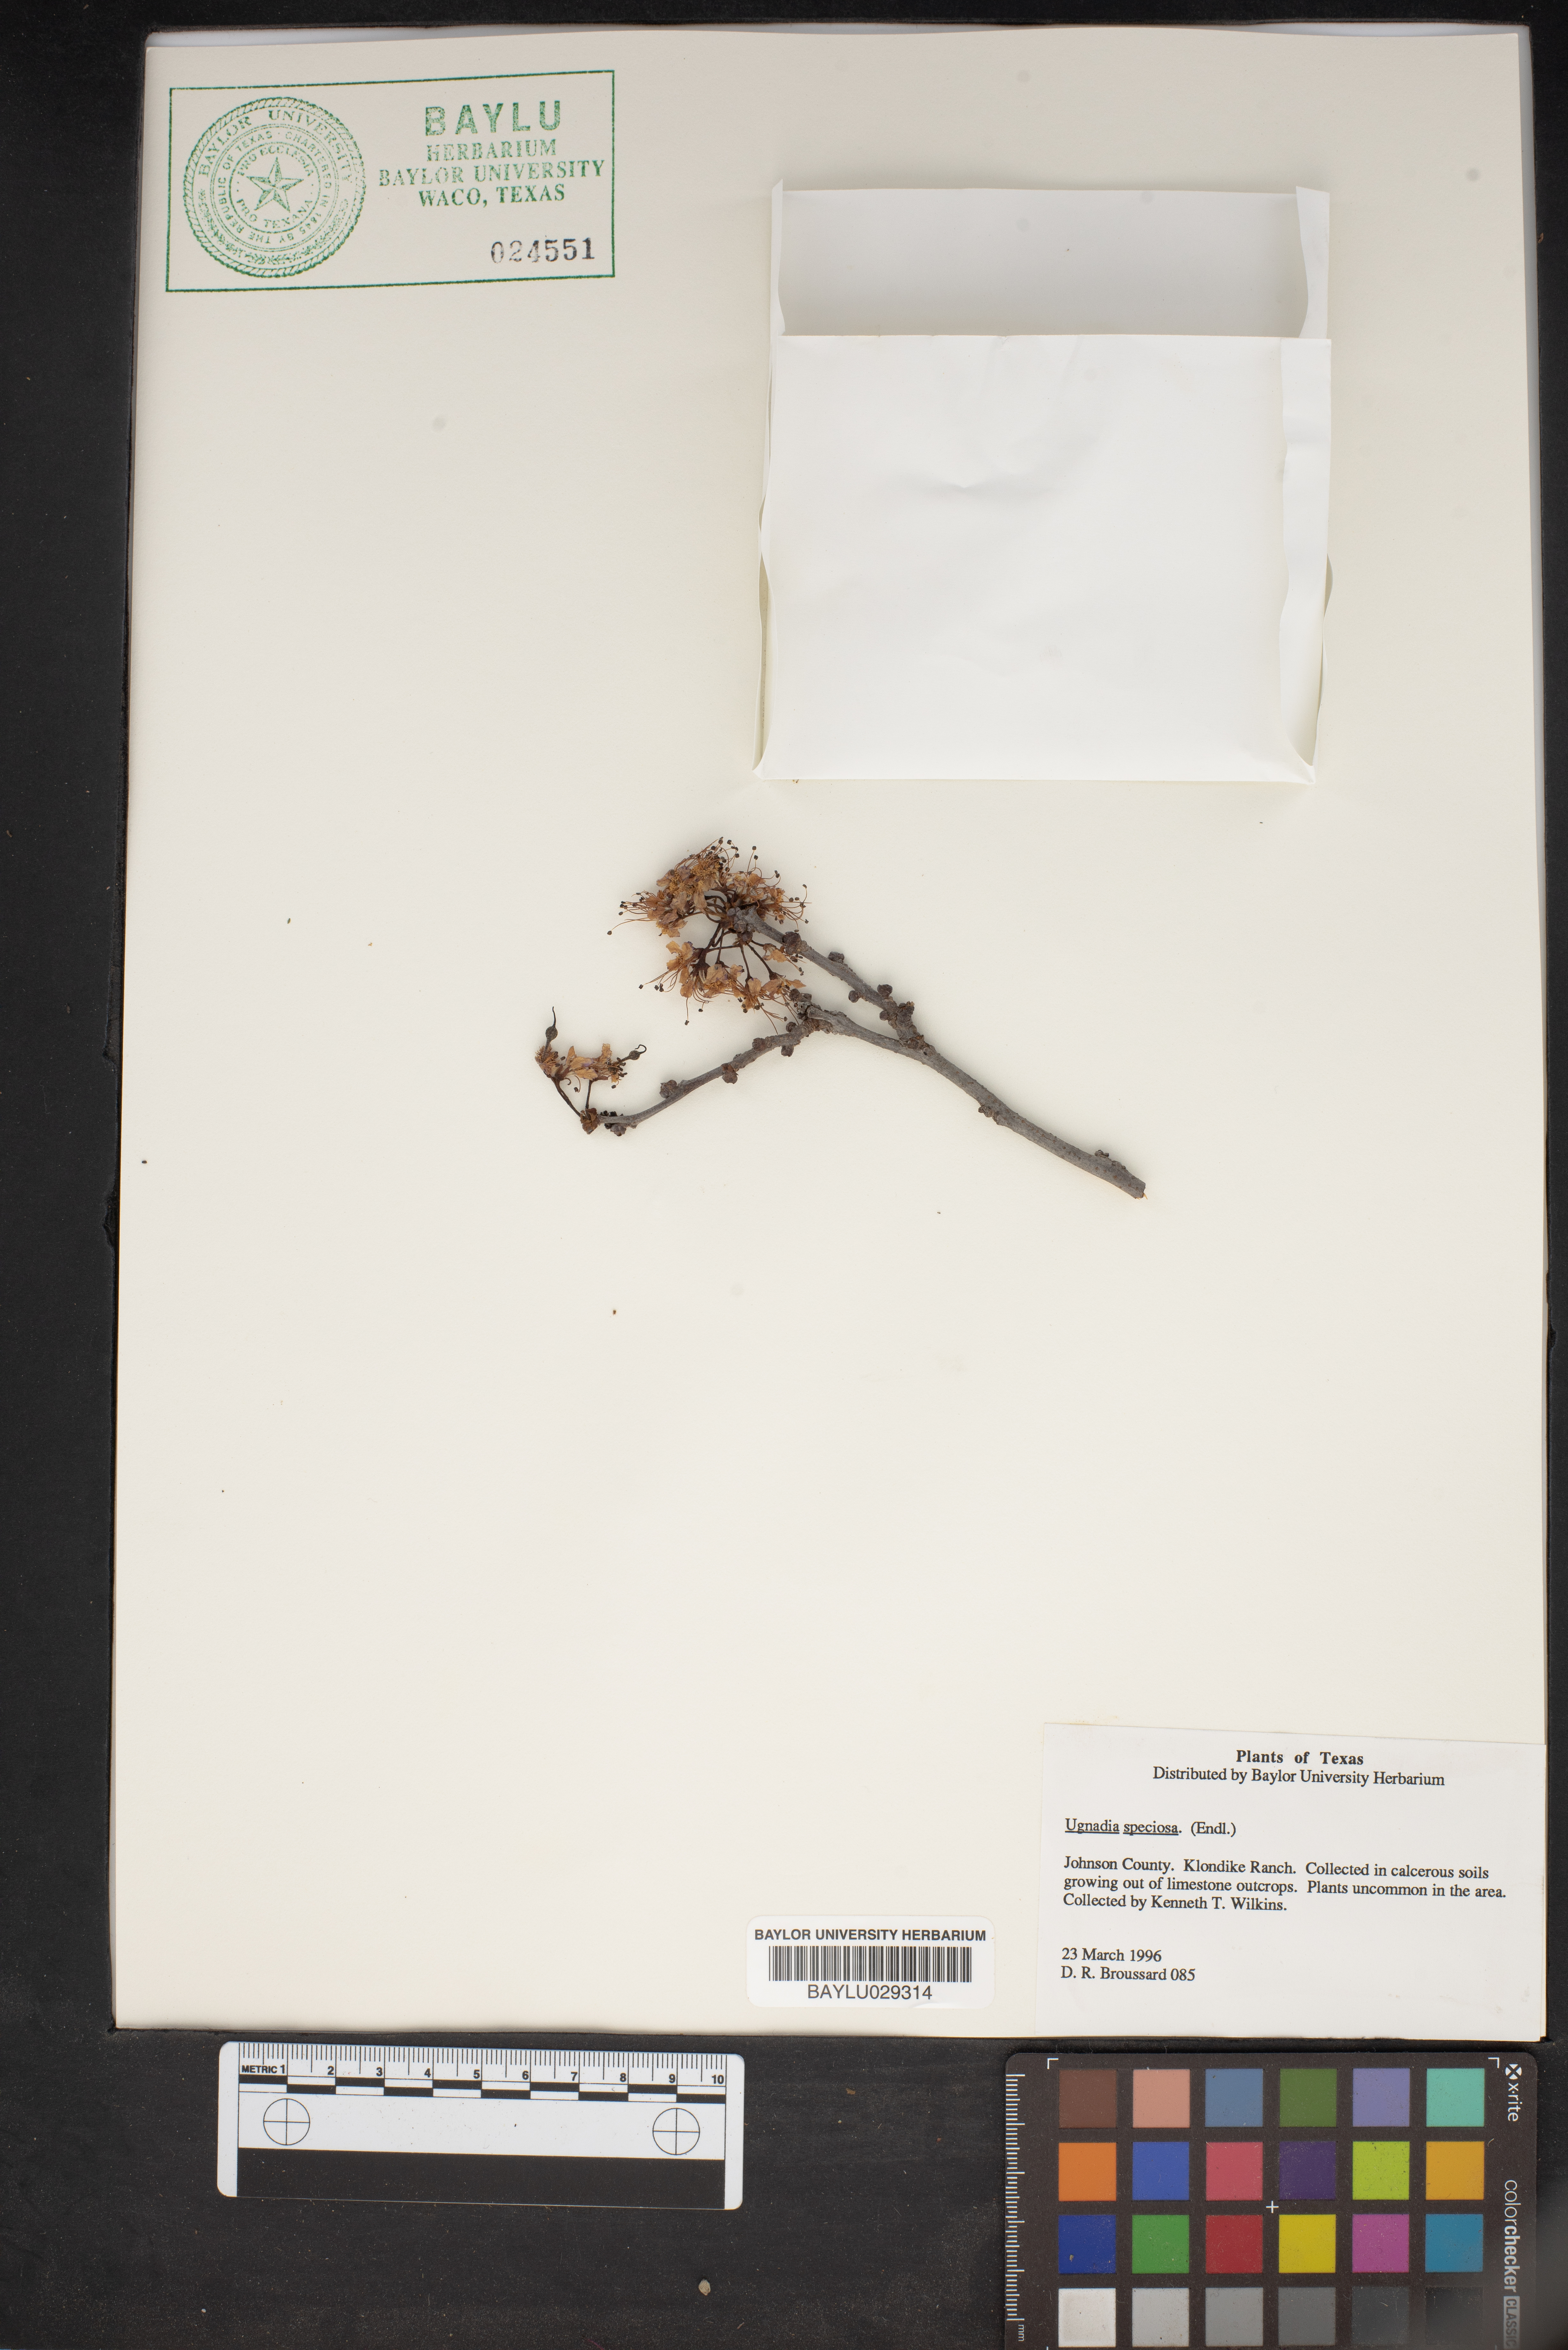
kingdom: Plantae
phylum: Tracheophyta
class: Magnoliopsida
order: Sapindales
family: Sapindaceae
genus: Ungnadia
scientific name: Ungnadia speciosa
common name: Texas-buckeye
